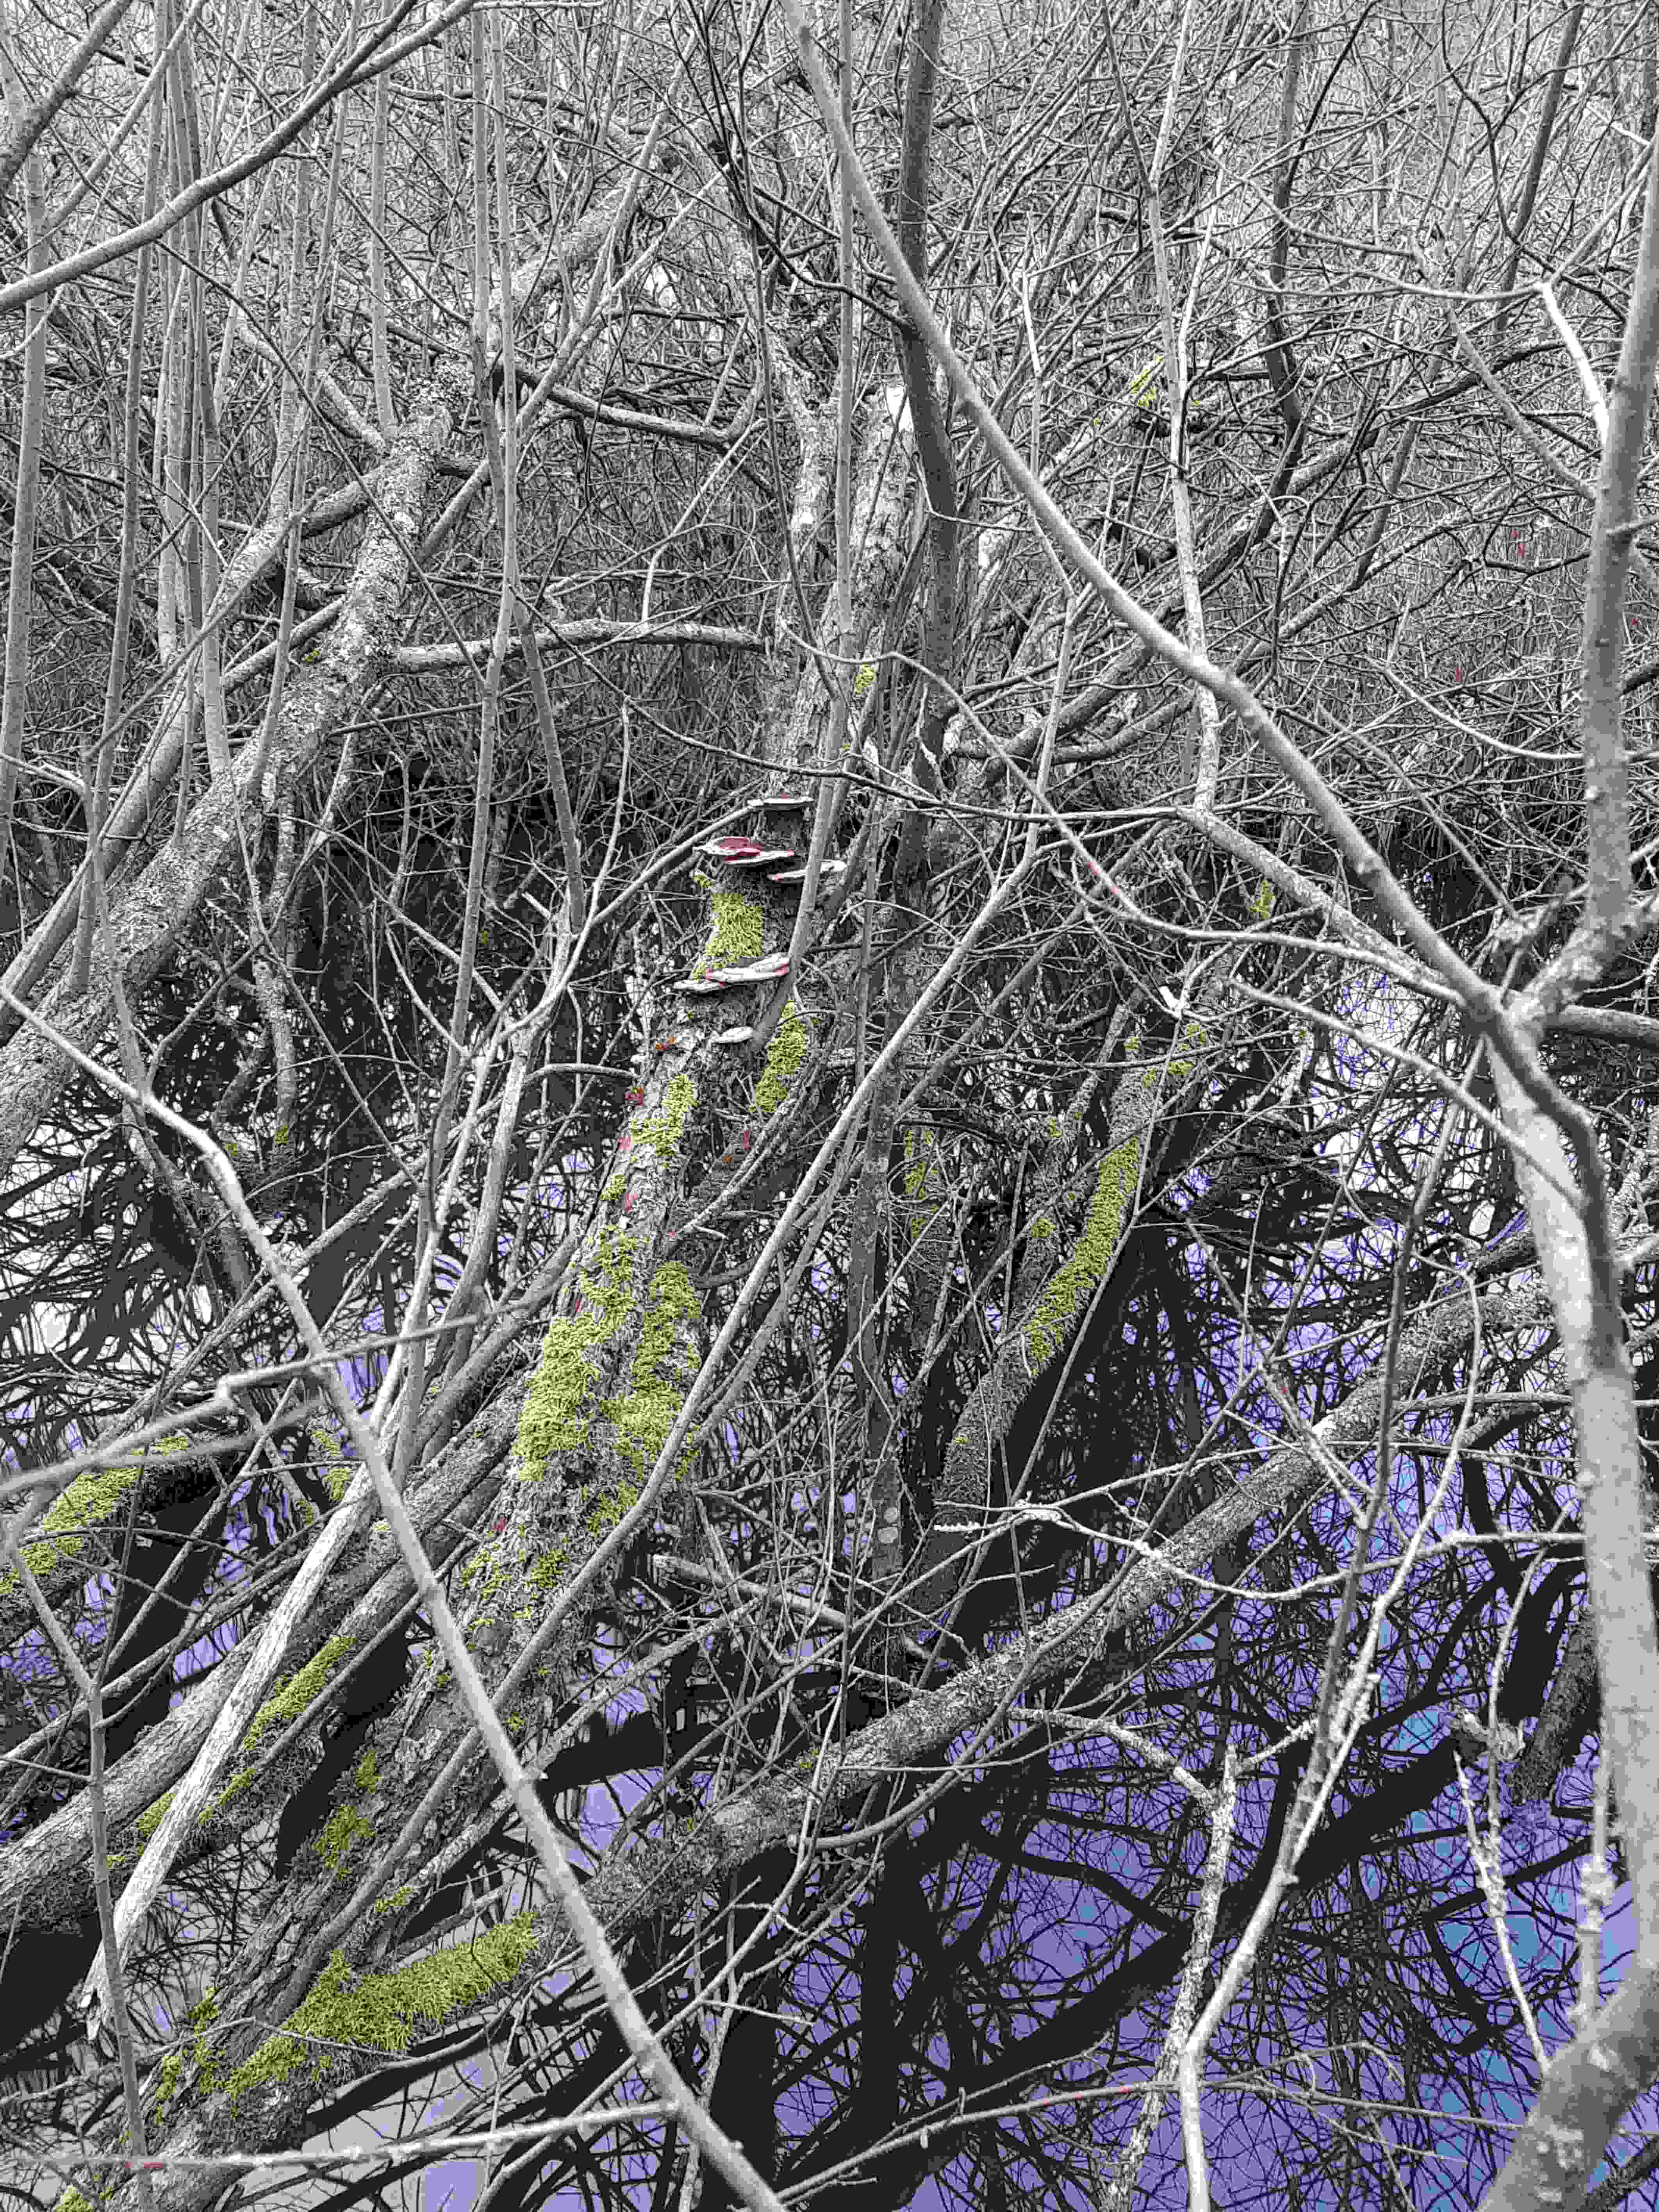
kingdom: Fungi
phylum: Basidiomycota
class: Agaricomycetes
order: Polyporales
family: Polyporaceae
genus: Daedaleopsis
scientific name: Daedaleopsis confragosa
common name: rødmende læderporesvamp
